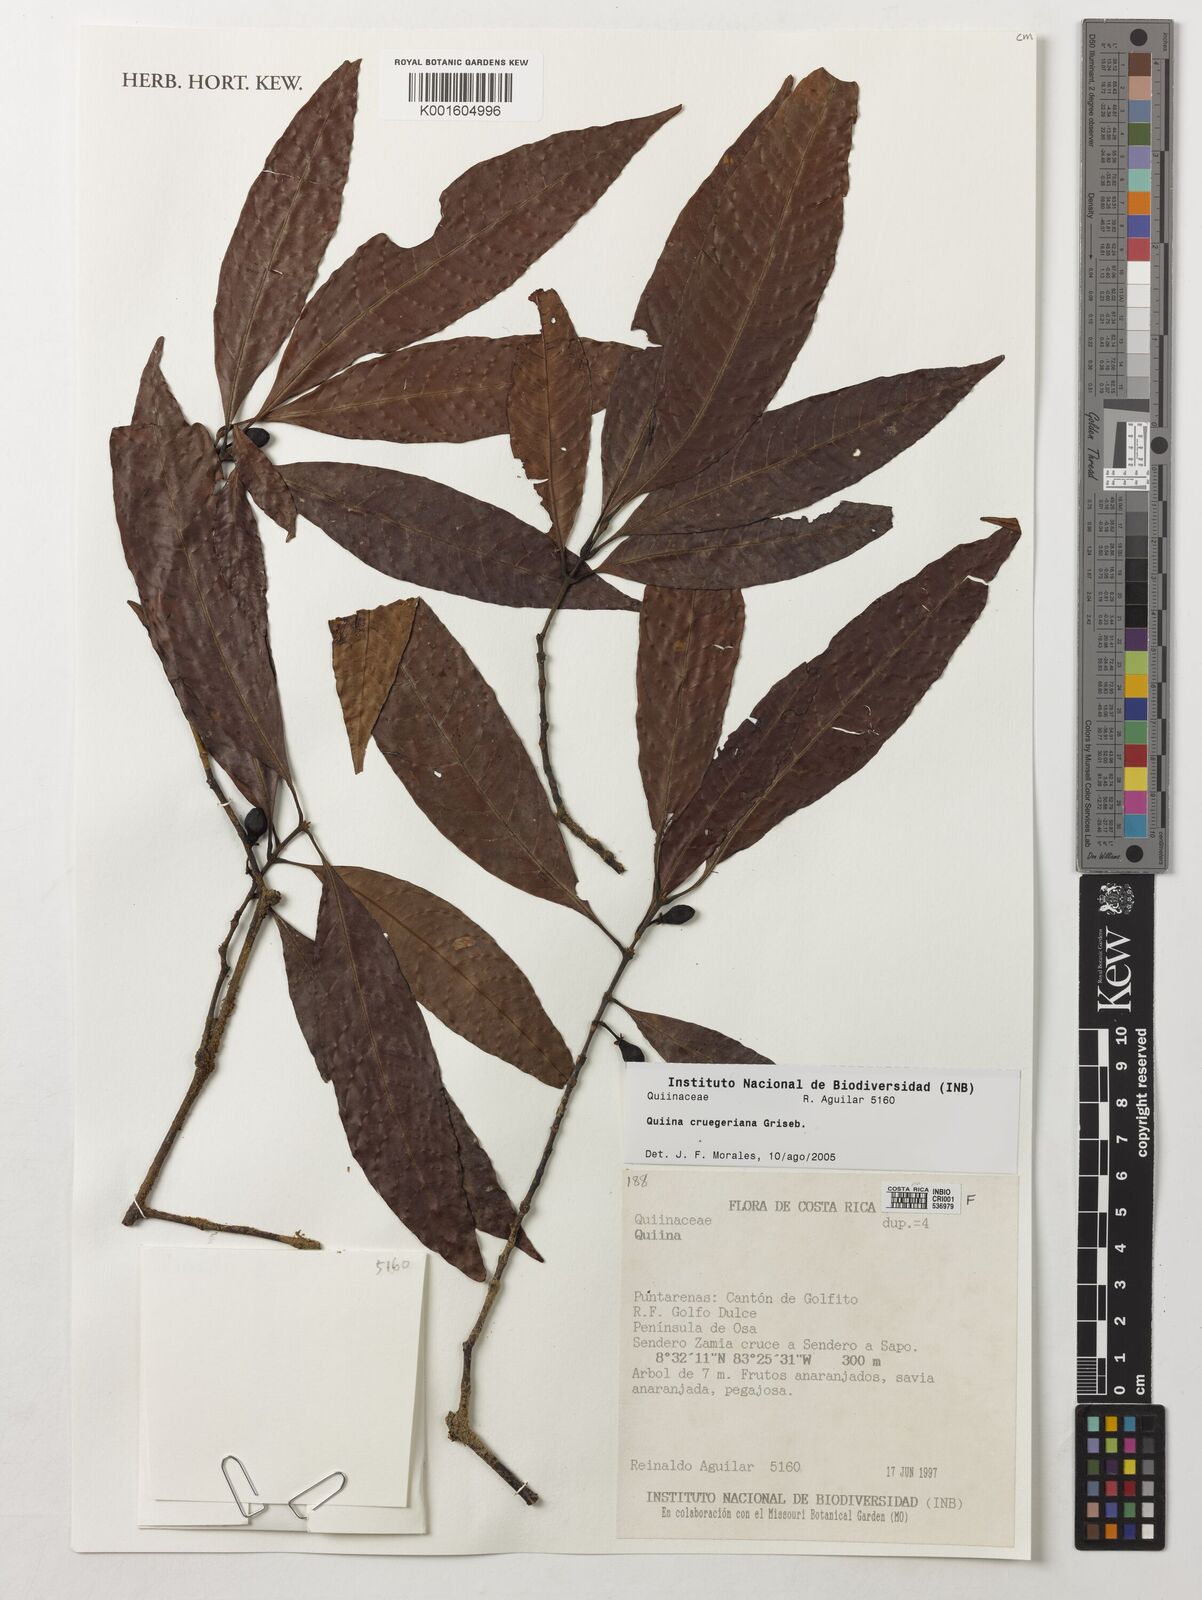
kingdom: Plantae
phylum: Tracheophyta
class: Magnoliopsida
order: Malpighiales
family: Quiinaceae
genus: Quiina
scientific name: Quiina cruegeriana
